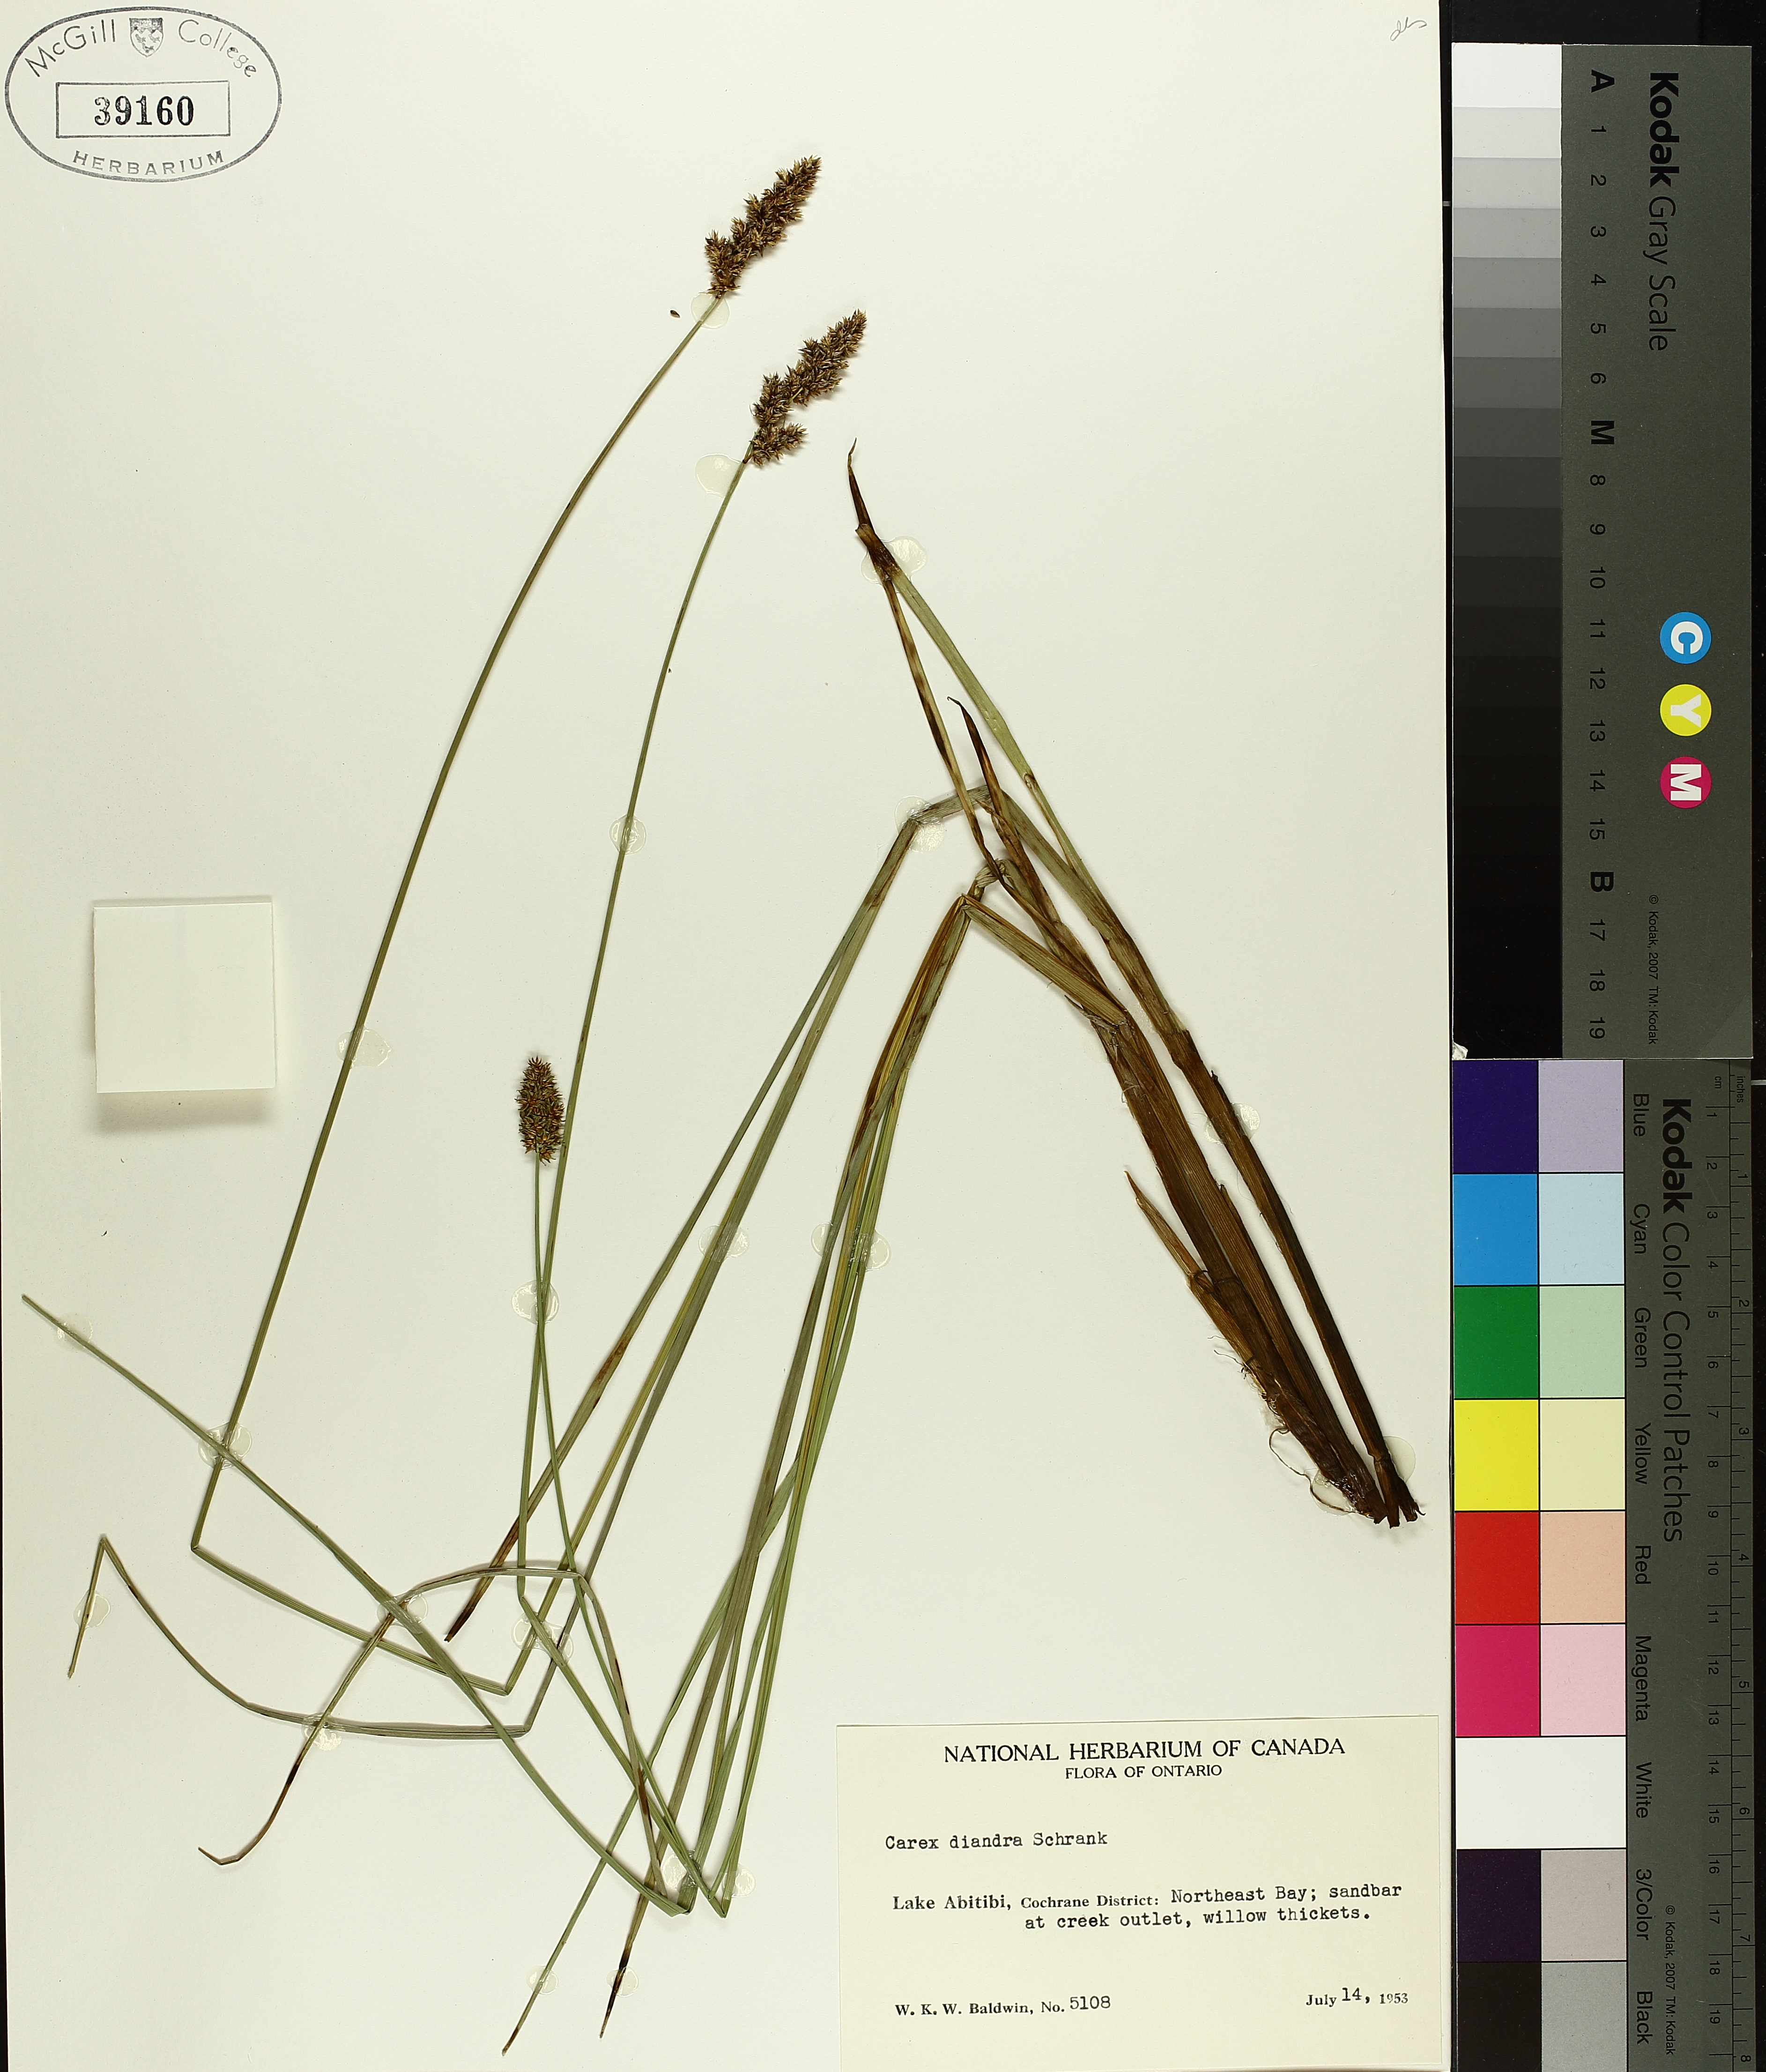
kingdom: Plantae
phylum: Tracheophyta
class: Liliopsida
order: Poales
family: Cyperaceae
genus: Carex
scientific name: Carex diandra
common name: Lesser tussock-sedge
